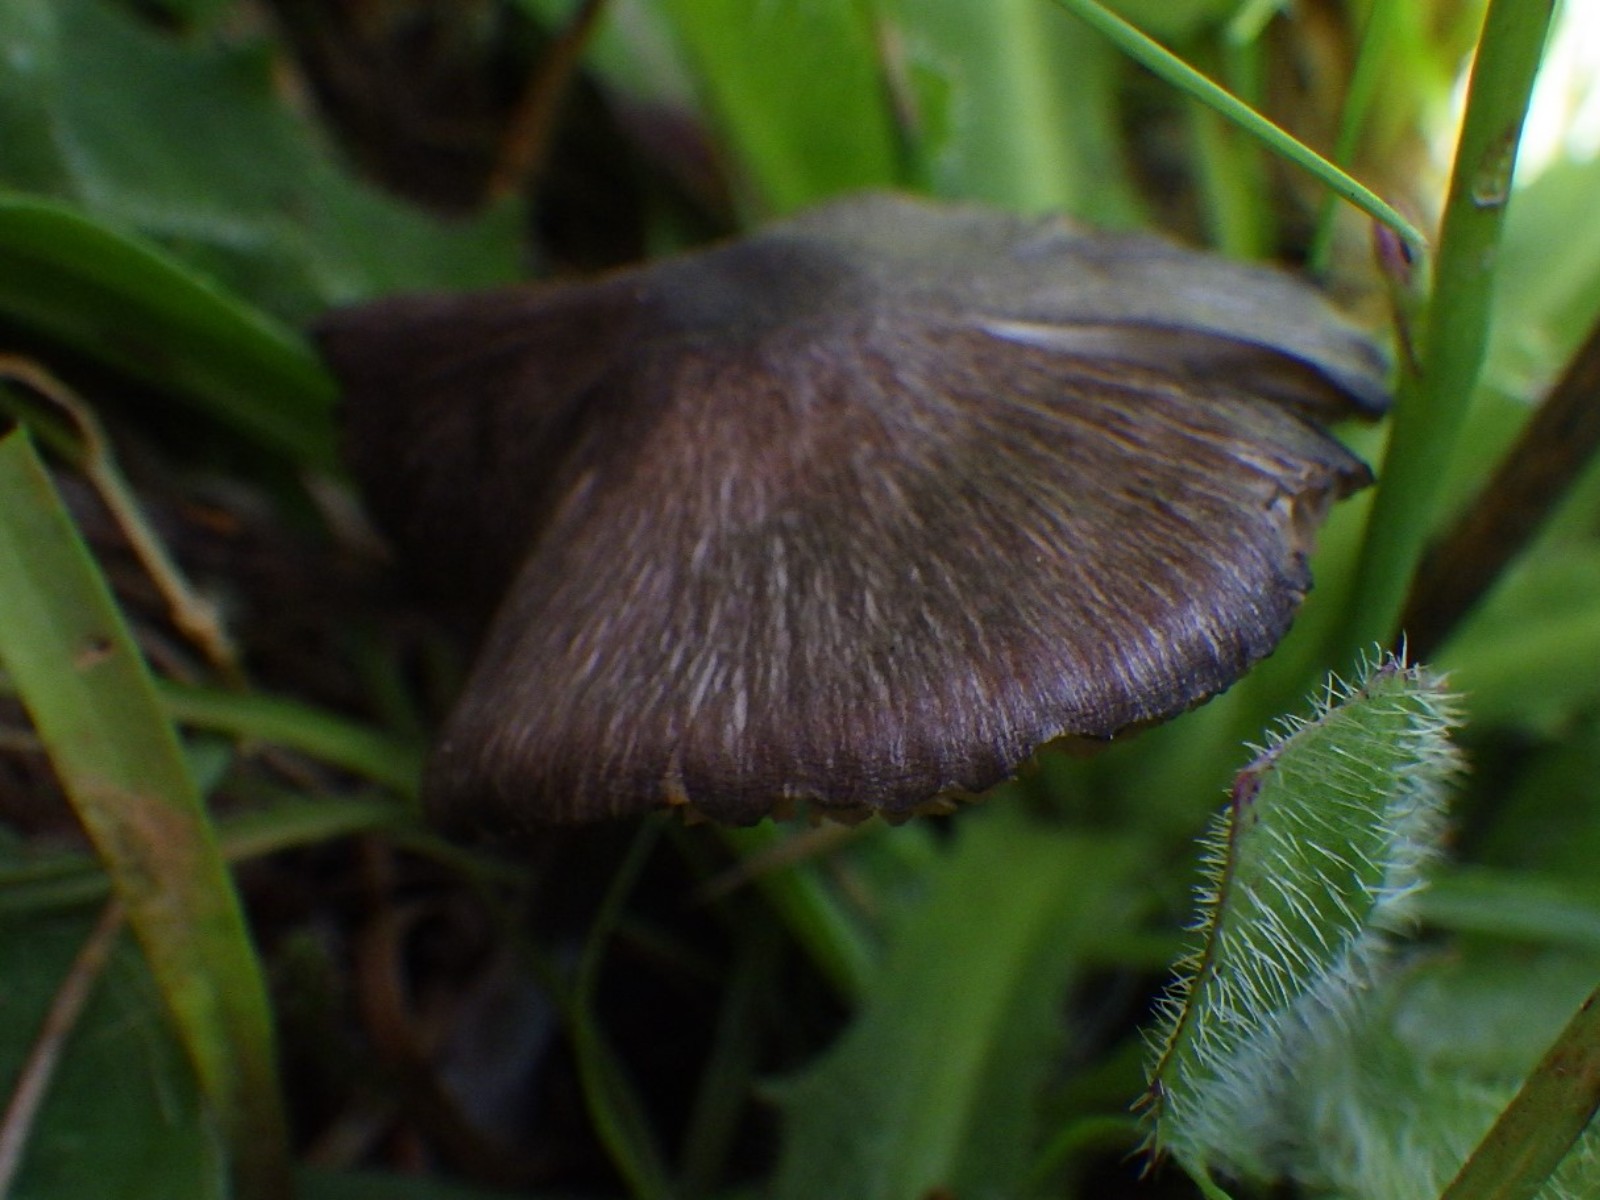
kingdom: Fungi
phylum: Basidiomycota
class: Agaricomycetes
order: Agaricales
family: Entolomataceae
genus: Entoloma
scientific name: Entoloma
